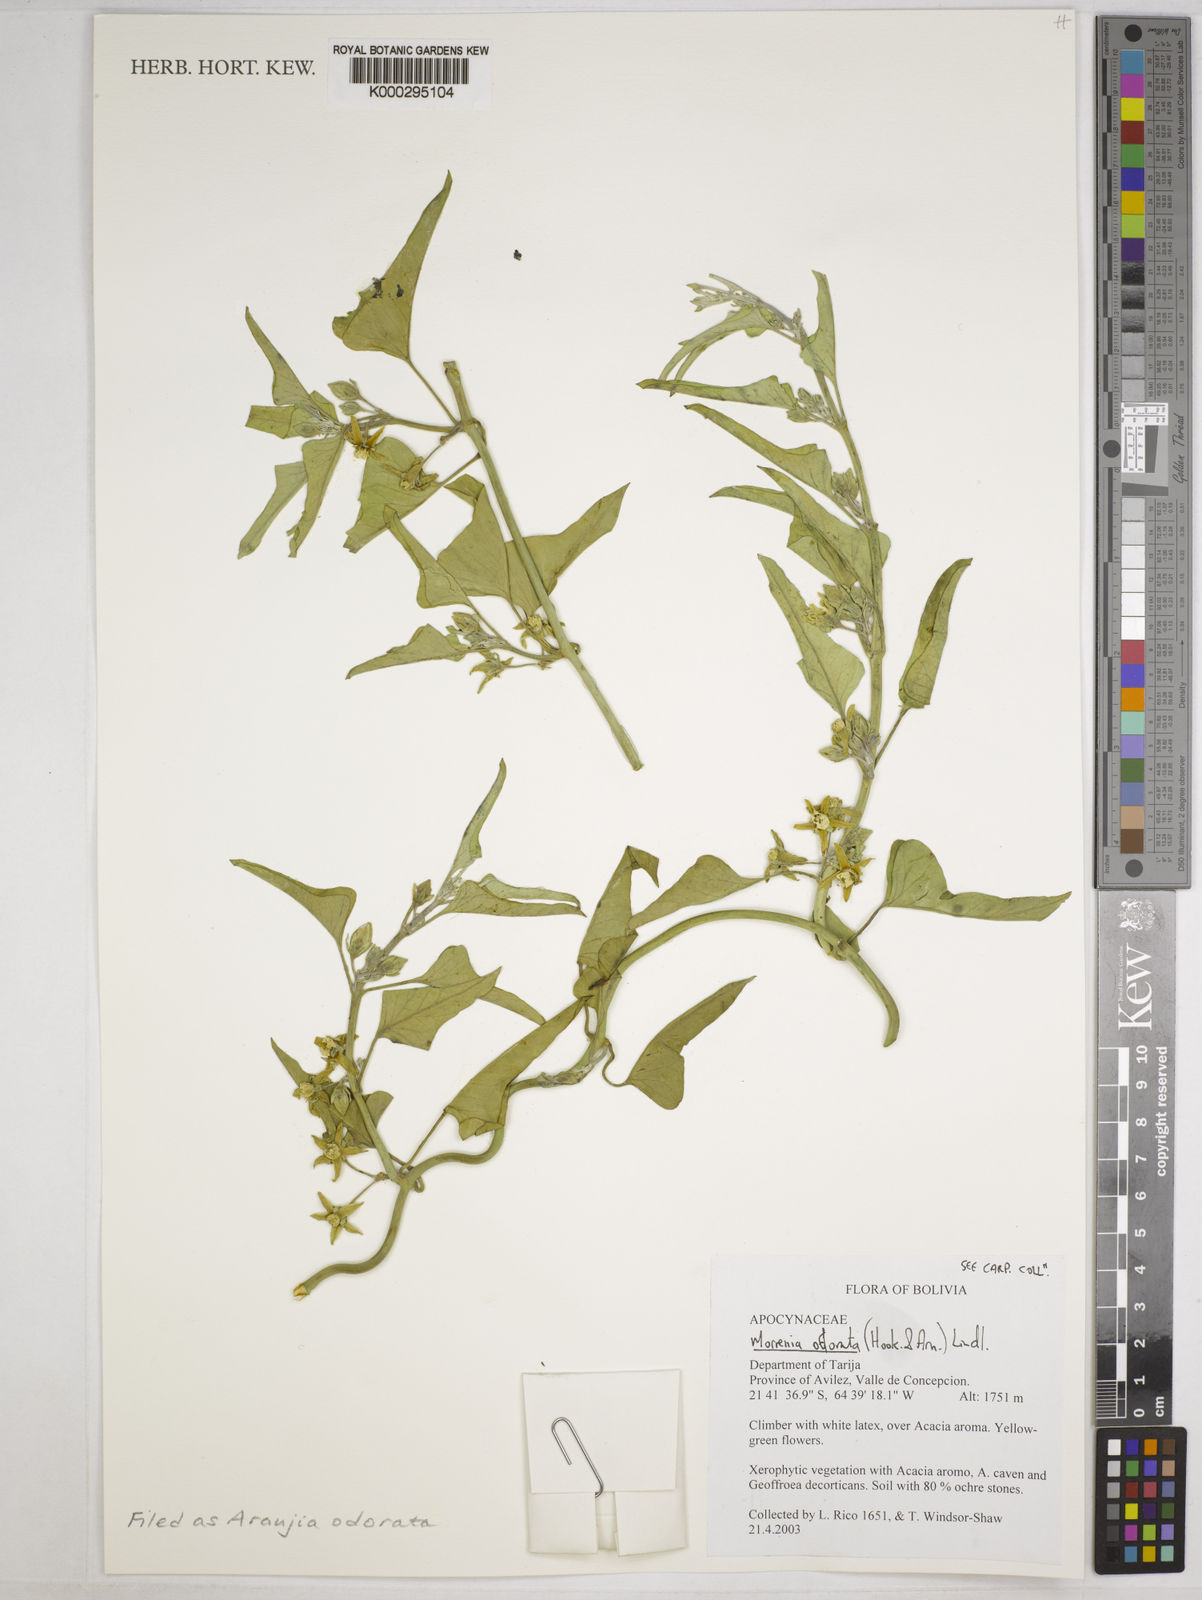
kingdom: Plantae
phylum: Tracheophyta
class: Magnoliopsida
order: Gentianales
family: Apocynaceae
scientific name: Apocynaceae
